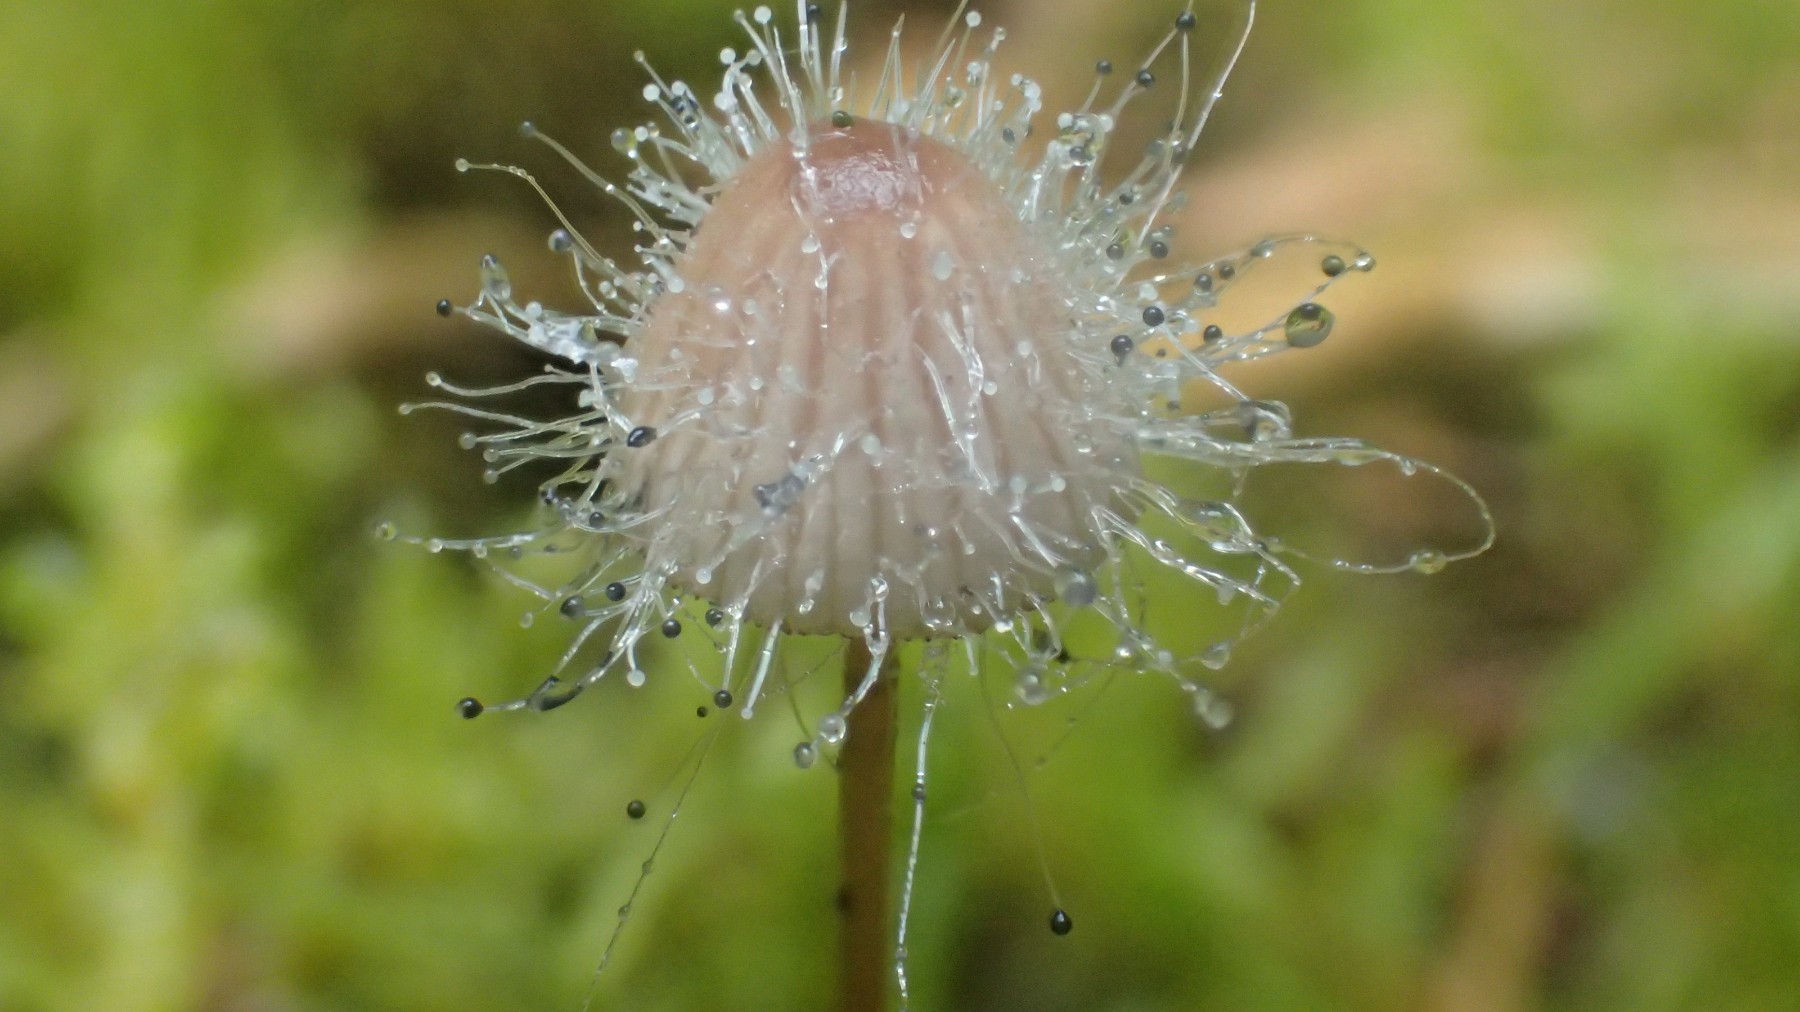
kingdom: Fungi
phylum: Mucoromycota
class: Mucoromycetes
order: Mucorales
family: Phycomycetaceae
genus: Spinellus
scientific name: Spinellus fusiger
